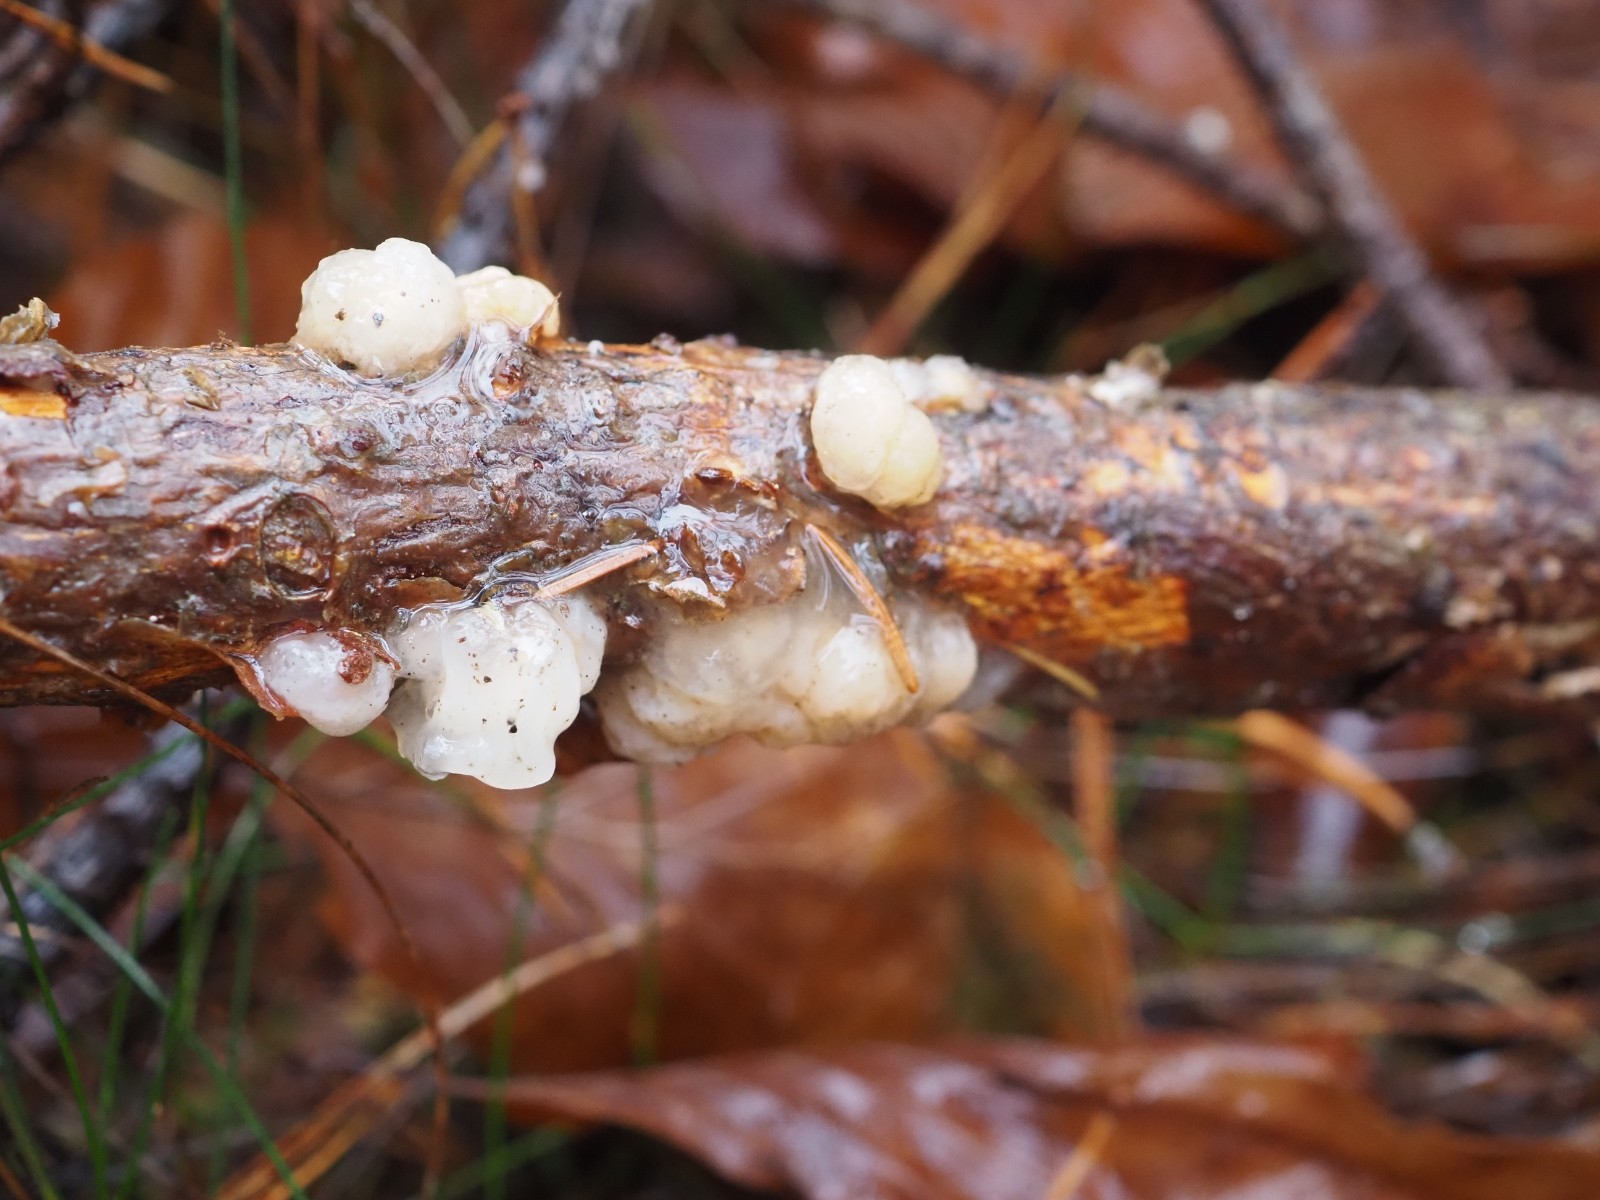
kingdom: Fungi
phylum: Basidiomycota
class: Tremellomycetes
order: Tremellales
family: Naemateliaceae
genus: Naematelia
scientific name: Naematelia encephala
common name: fyrre-bævresvamp
